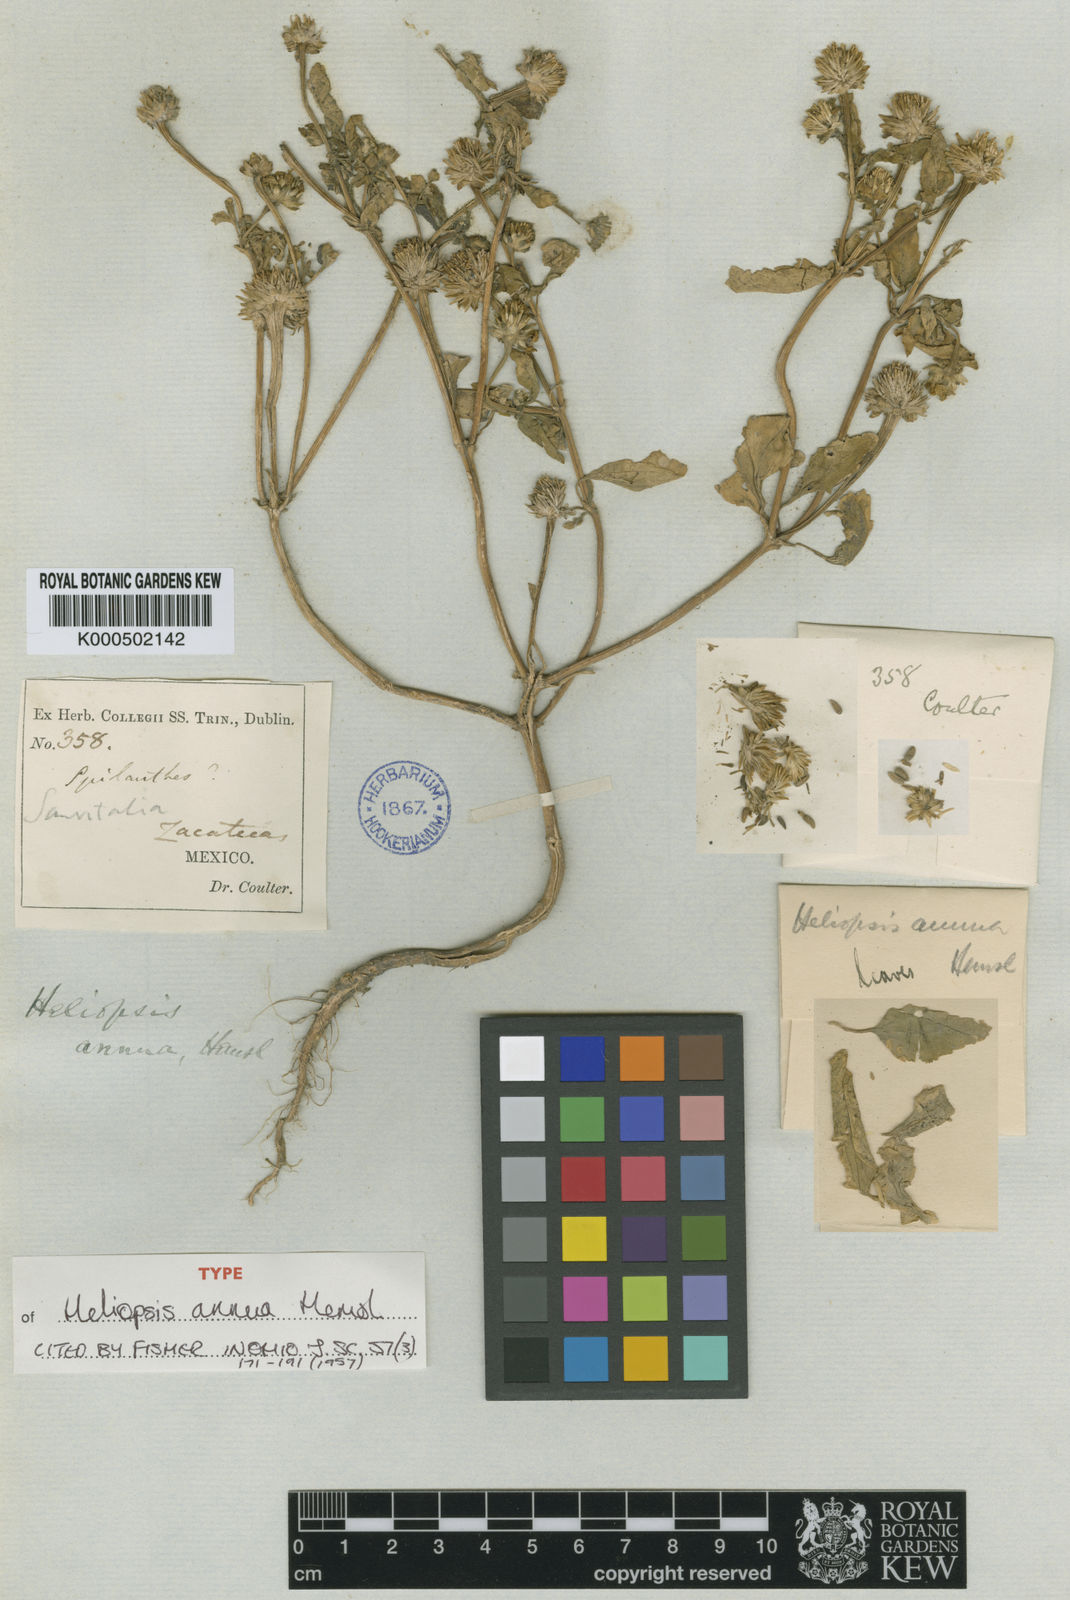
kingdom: Plantae
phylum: Tracheophyta
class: Magnoliopsida
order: Asterales
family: Asteraceae
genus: Heliopsis
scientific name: Heliopsis annua
